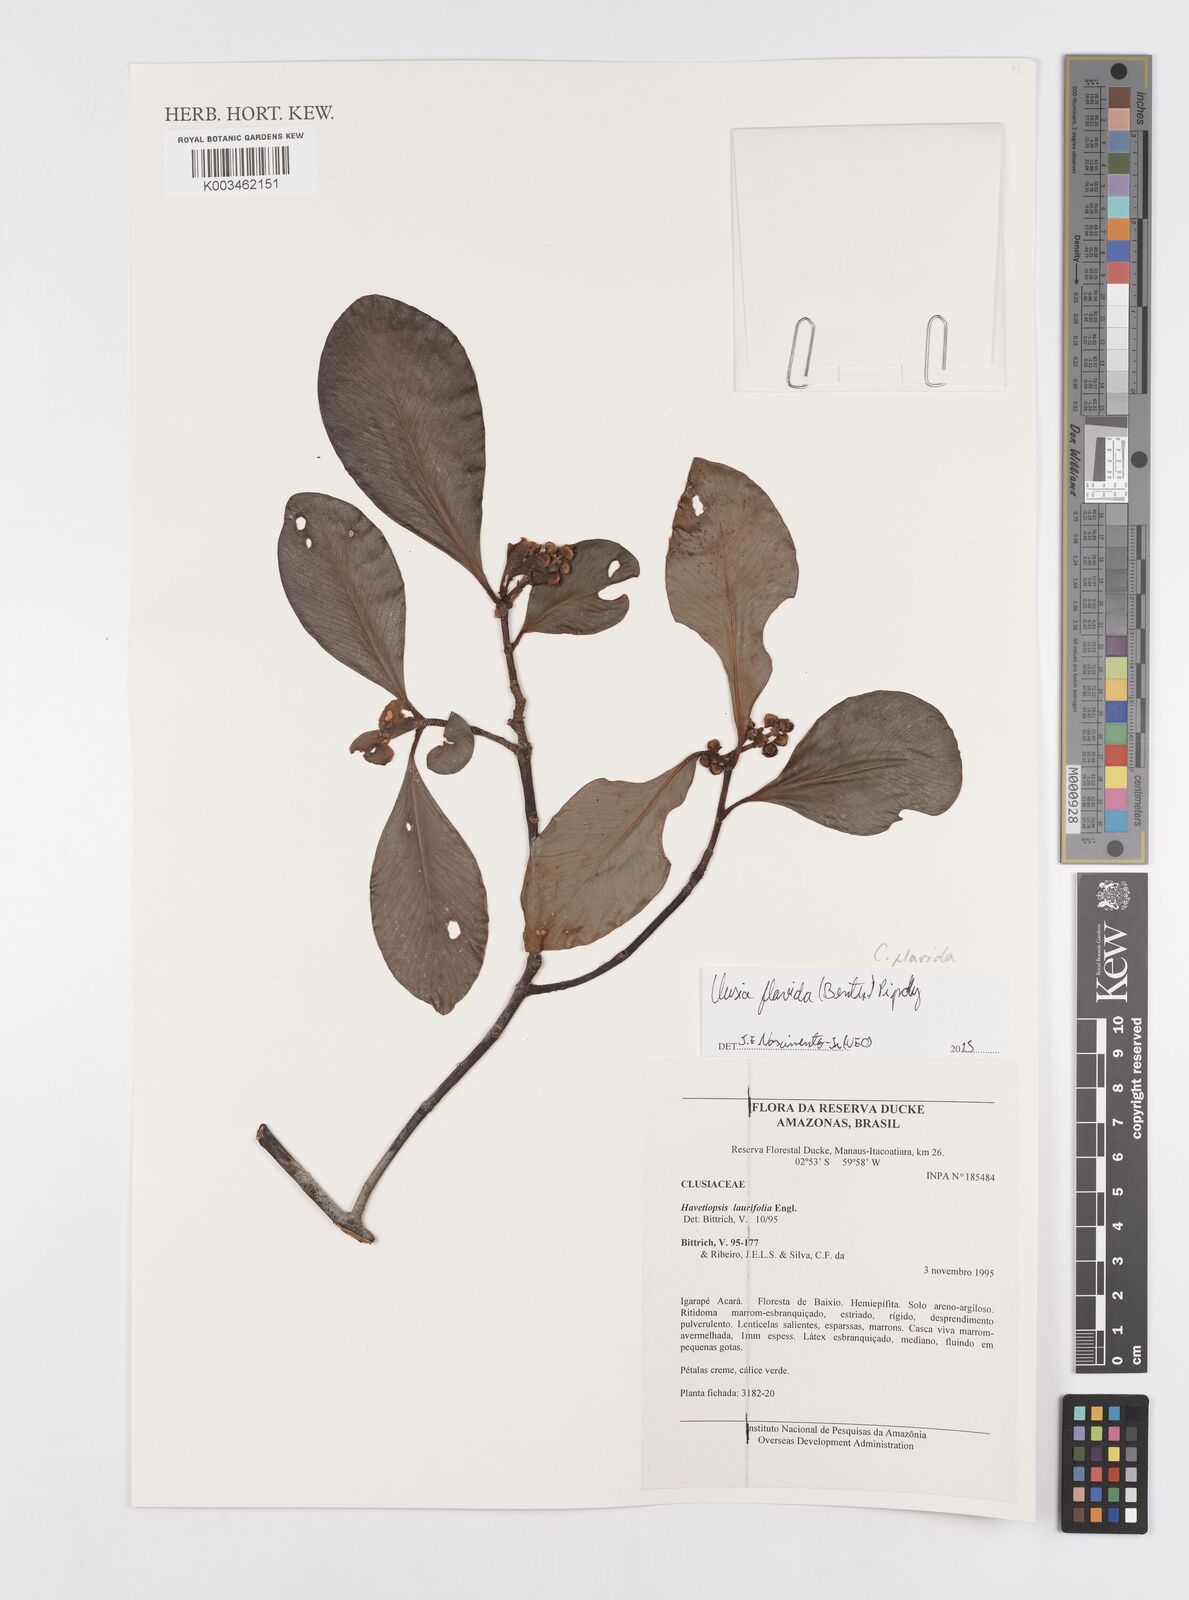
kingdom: Plantae
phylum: Tracheophyta
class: Magnoliopsida
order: Malpighiales
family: Clusiaceae
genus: Clusia
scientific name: Clusia flavida
